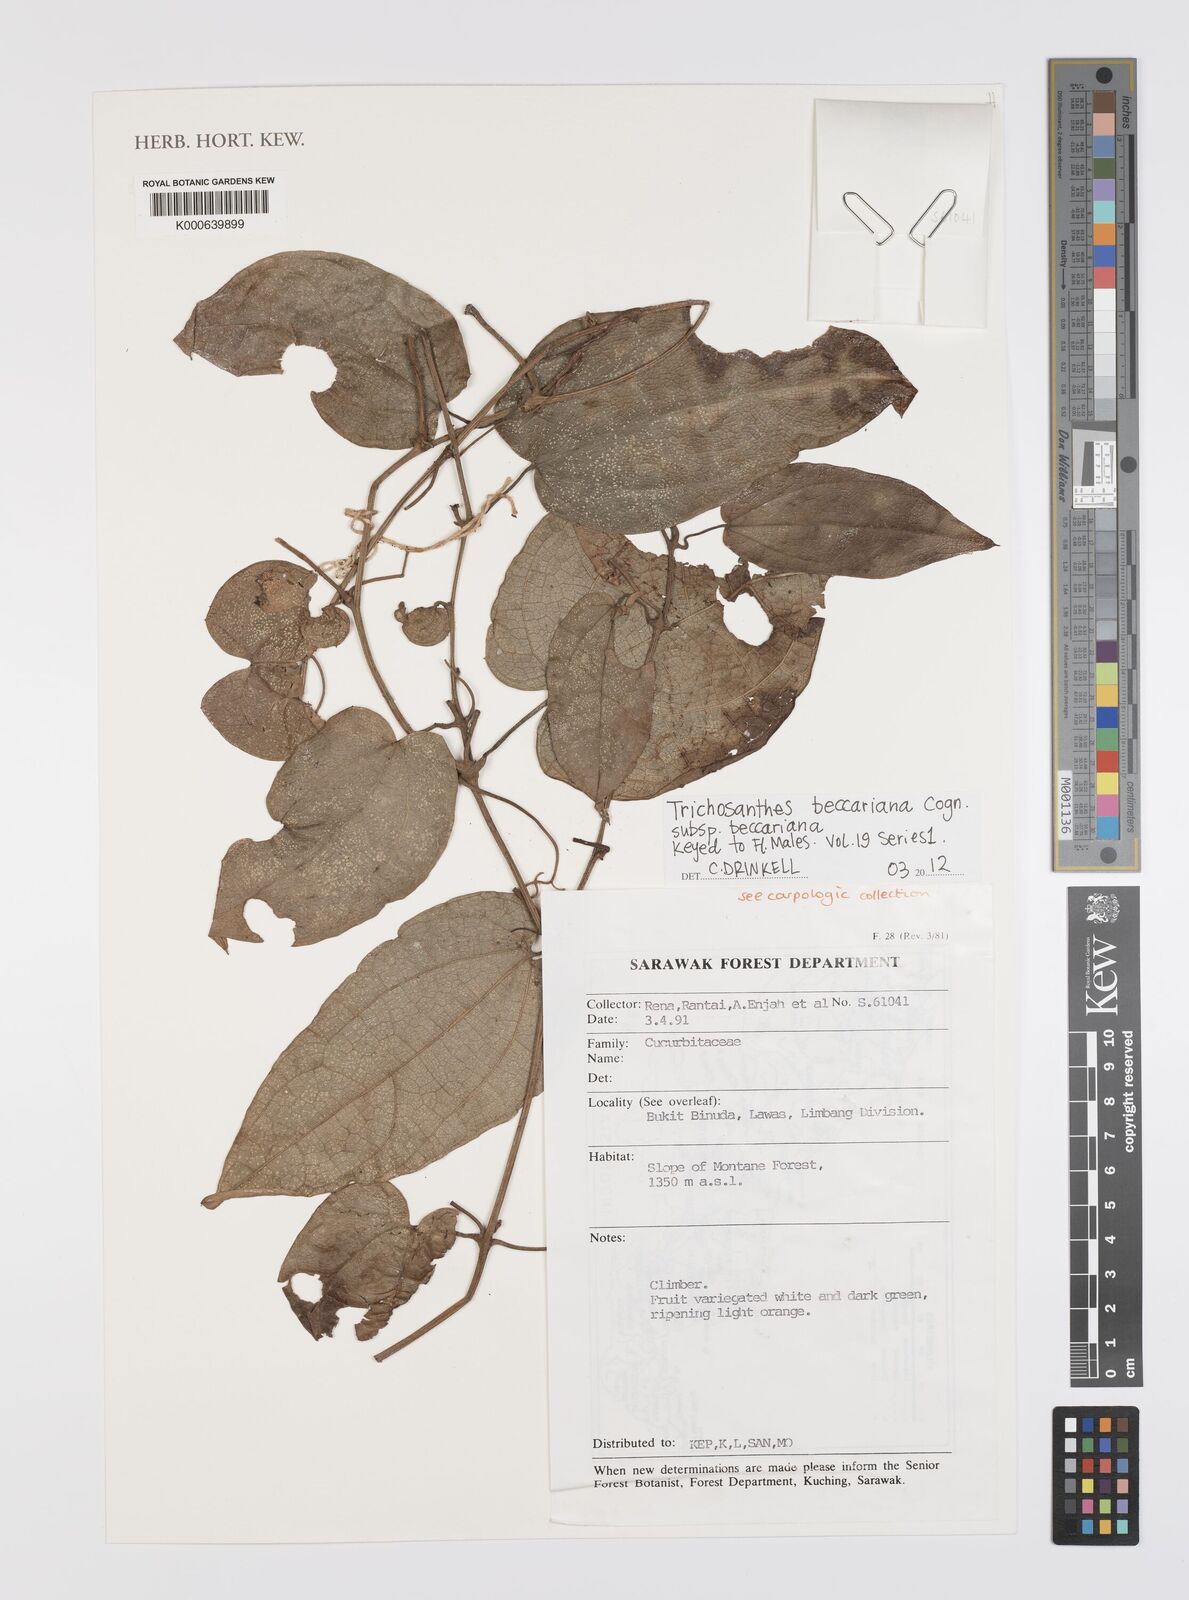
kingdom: Plantae
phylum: Tracheophyta
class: Magnoliopsida
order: Cucurbitales
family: Cucurbitaceae
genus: Trichosanthes
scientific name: Trichosanthes beccariana
